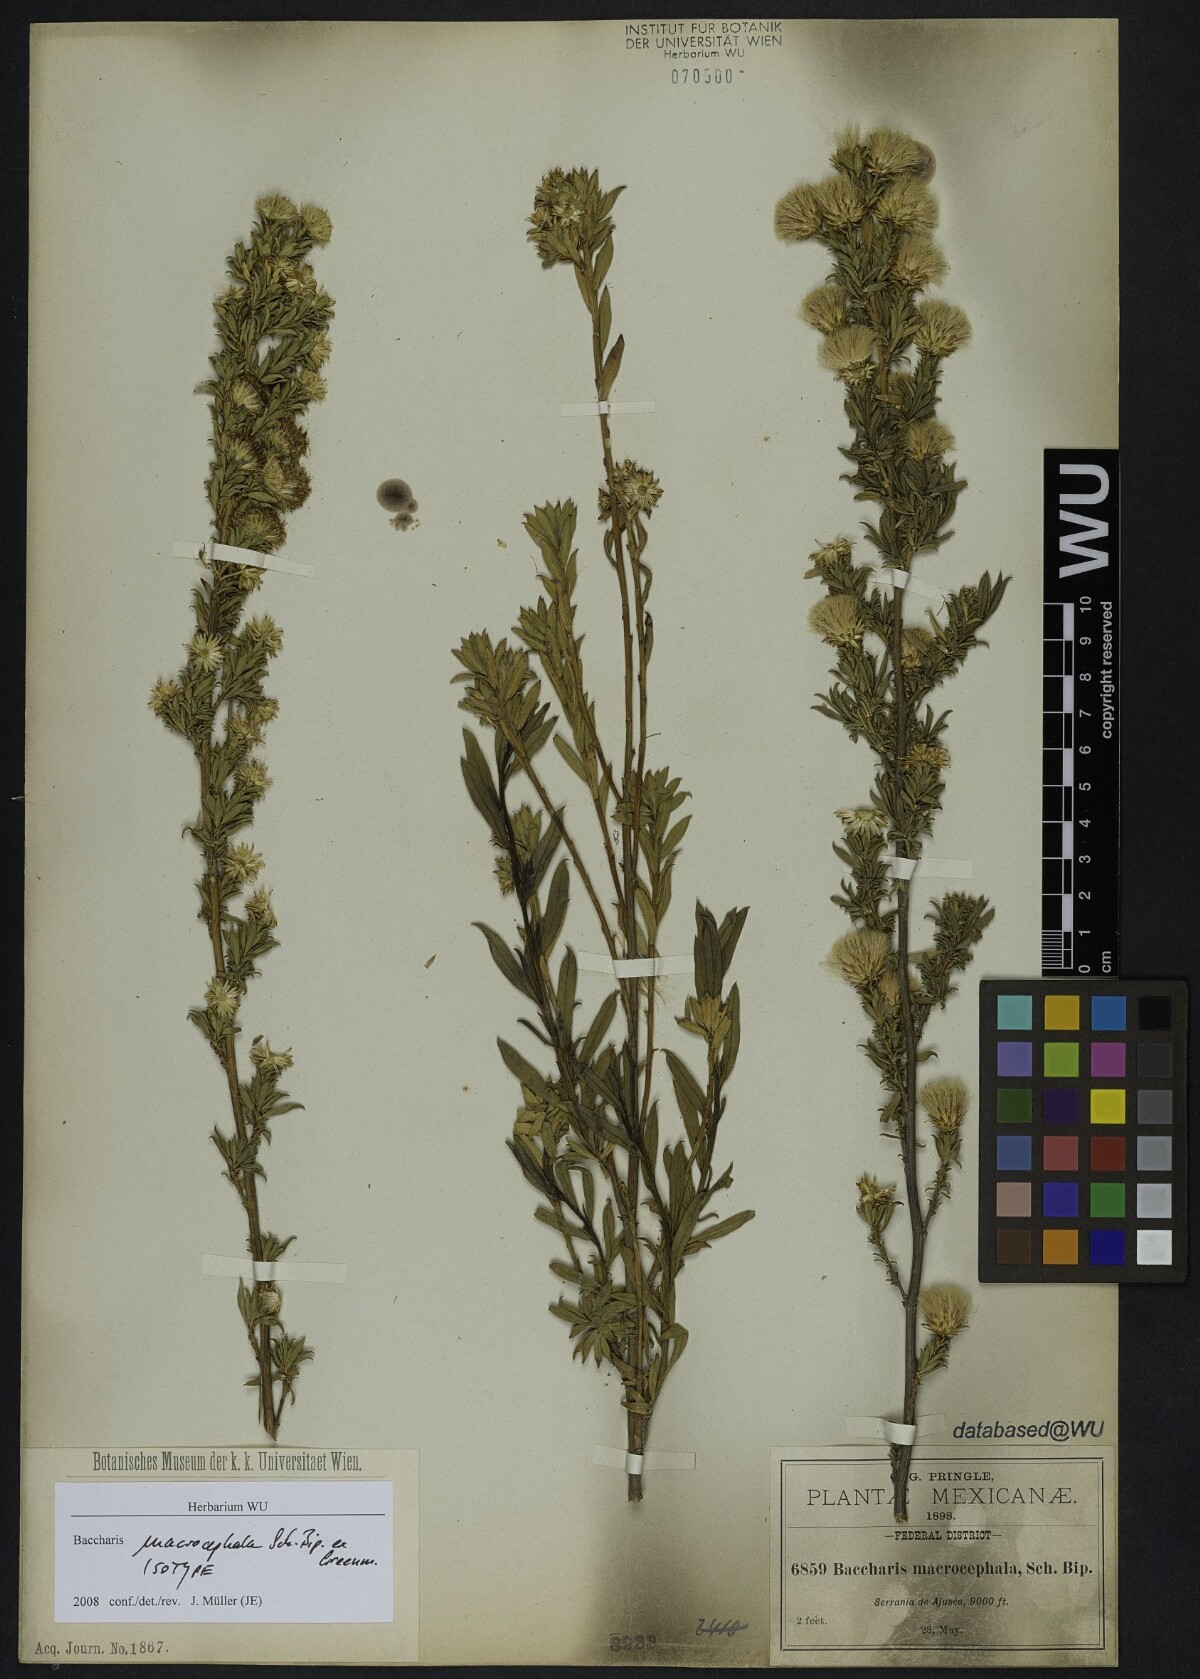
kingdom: Plantae
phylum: Tracheophyta
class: Magnoliopsida
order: Asterales
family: Asteraceae
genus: Baccharis
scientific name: Baccharis macrocephala
